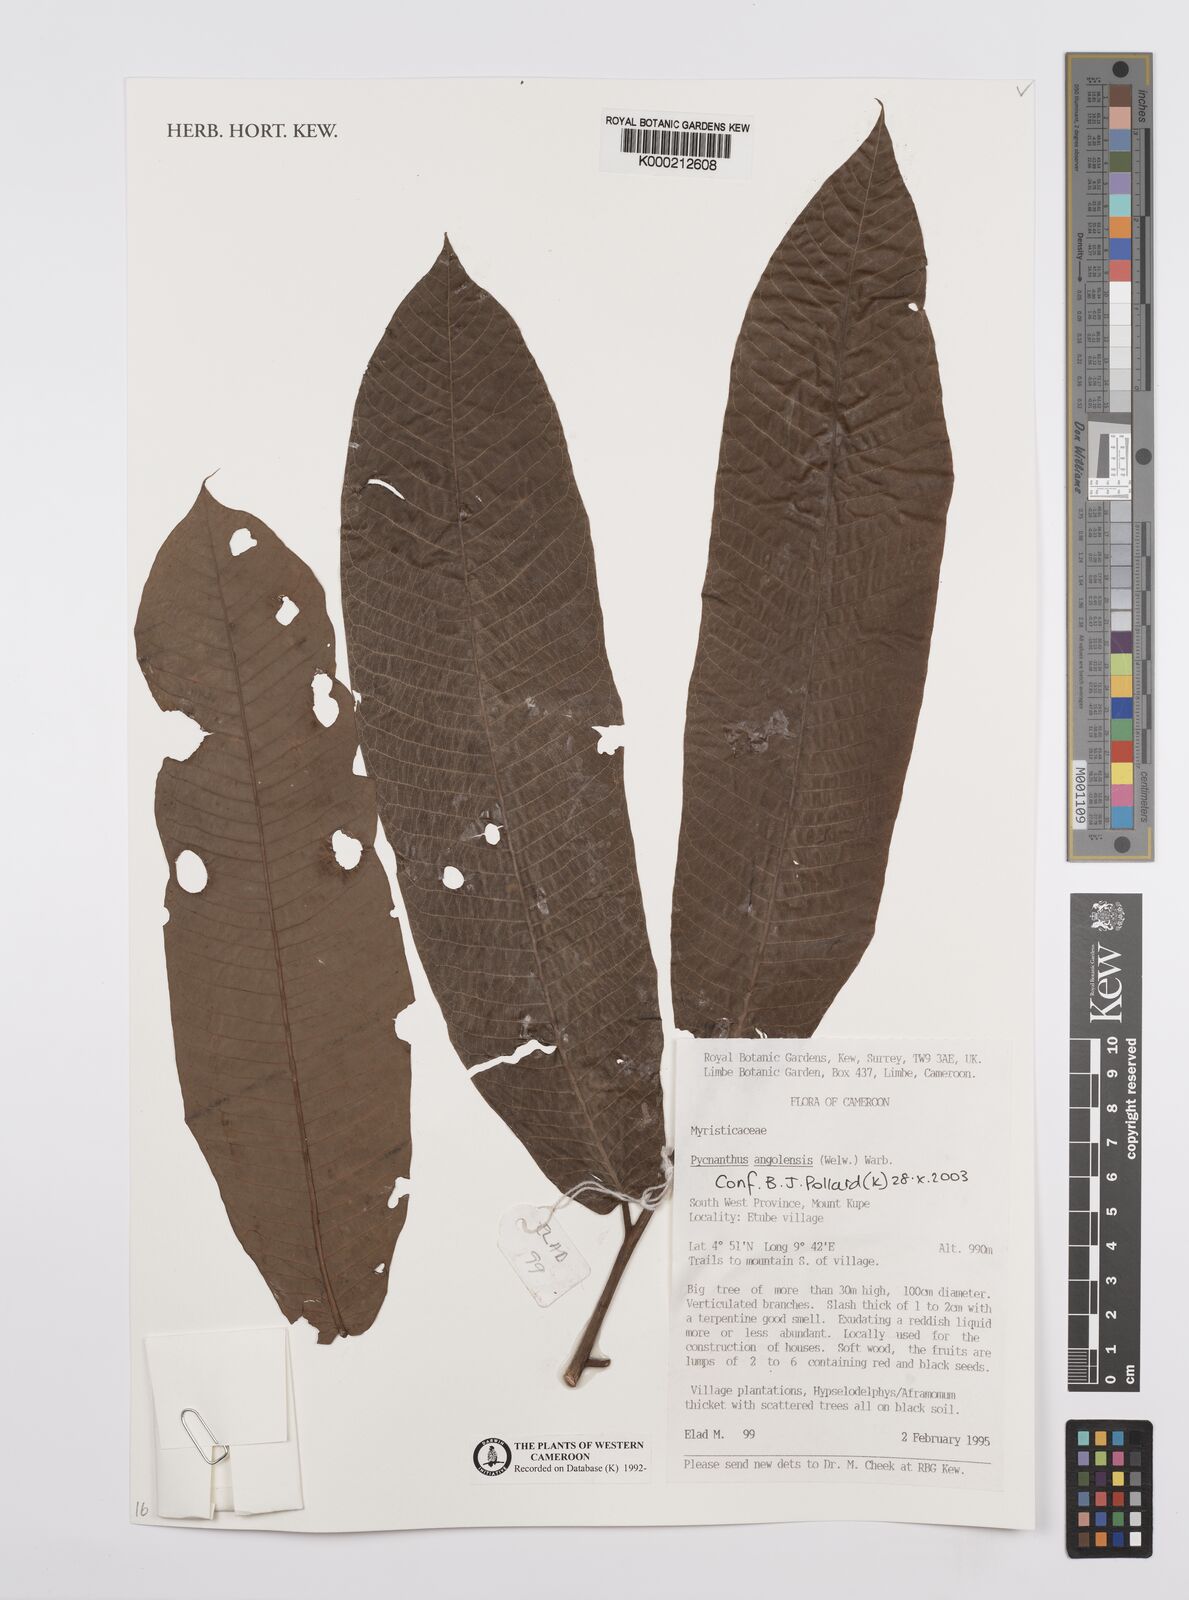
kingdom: Plantae
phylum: Tracheophyta
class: Magnoliopsida
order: Magnoliales
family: Myristicaceae
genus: Pycnanthus
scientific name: Pycnanthus angolensis
